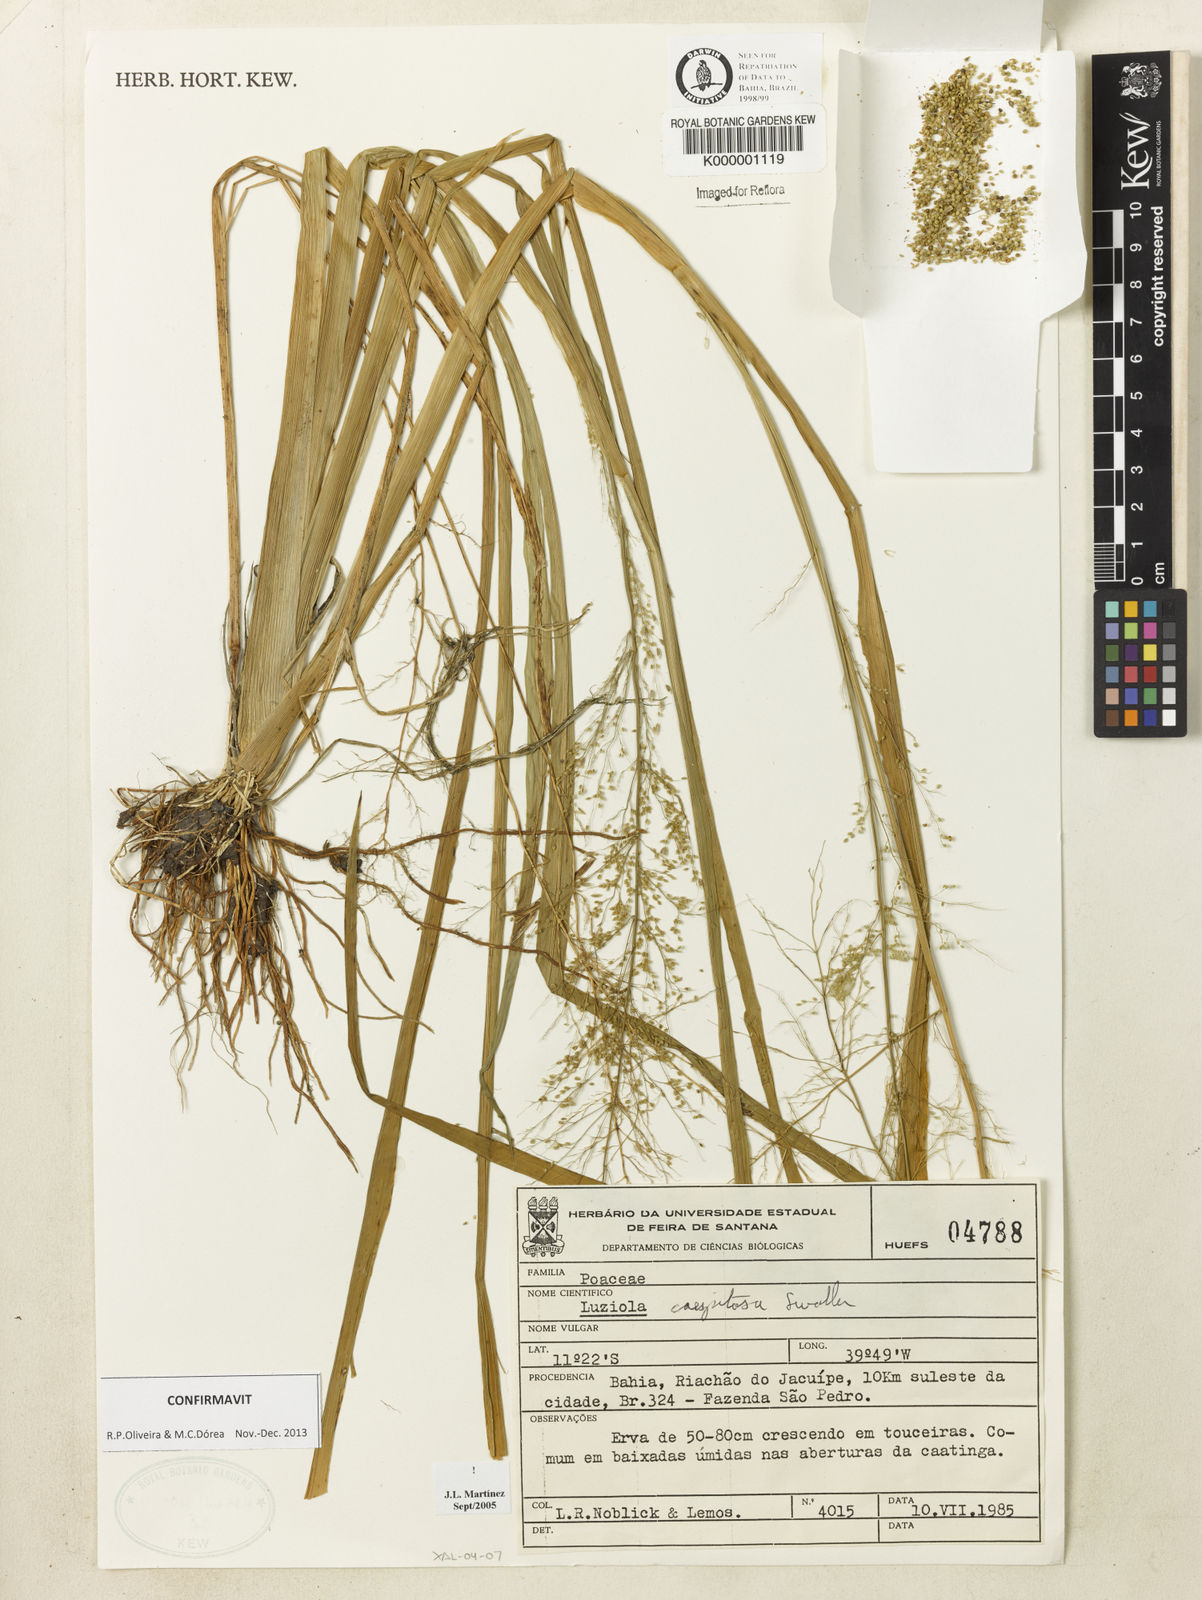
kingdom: Plantae
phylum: Tracheophyta
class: Liliopsida
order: Poales
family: Poaceae
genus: Luziola
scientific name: Luziola caespitosa
